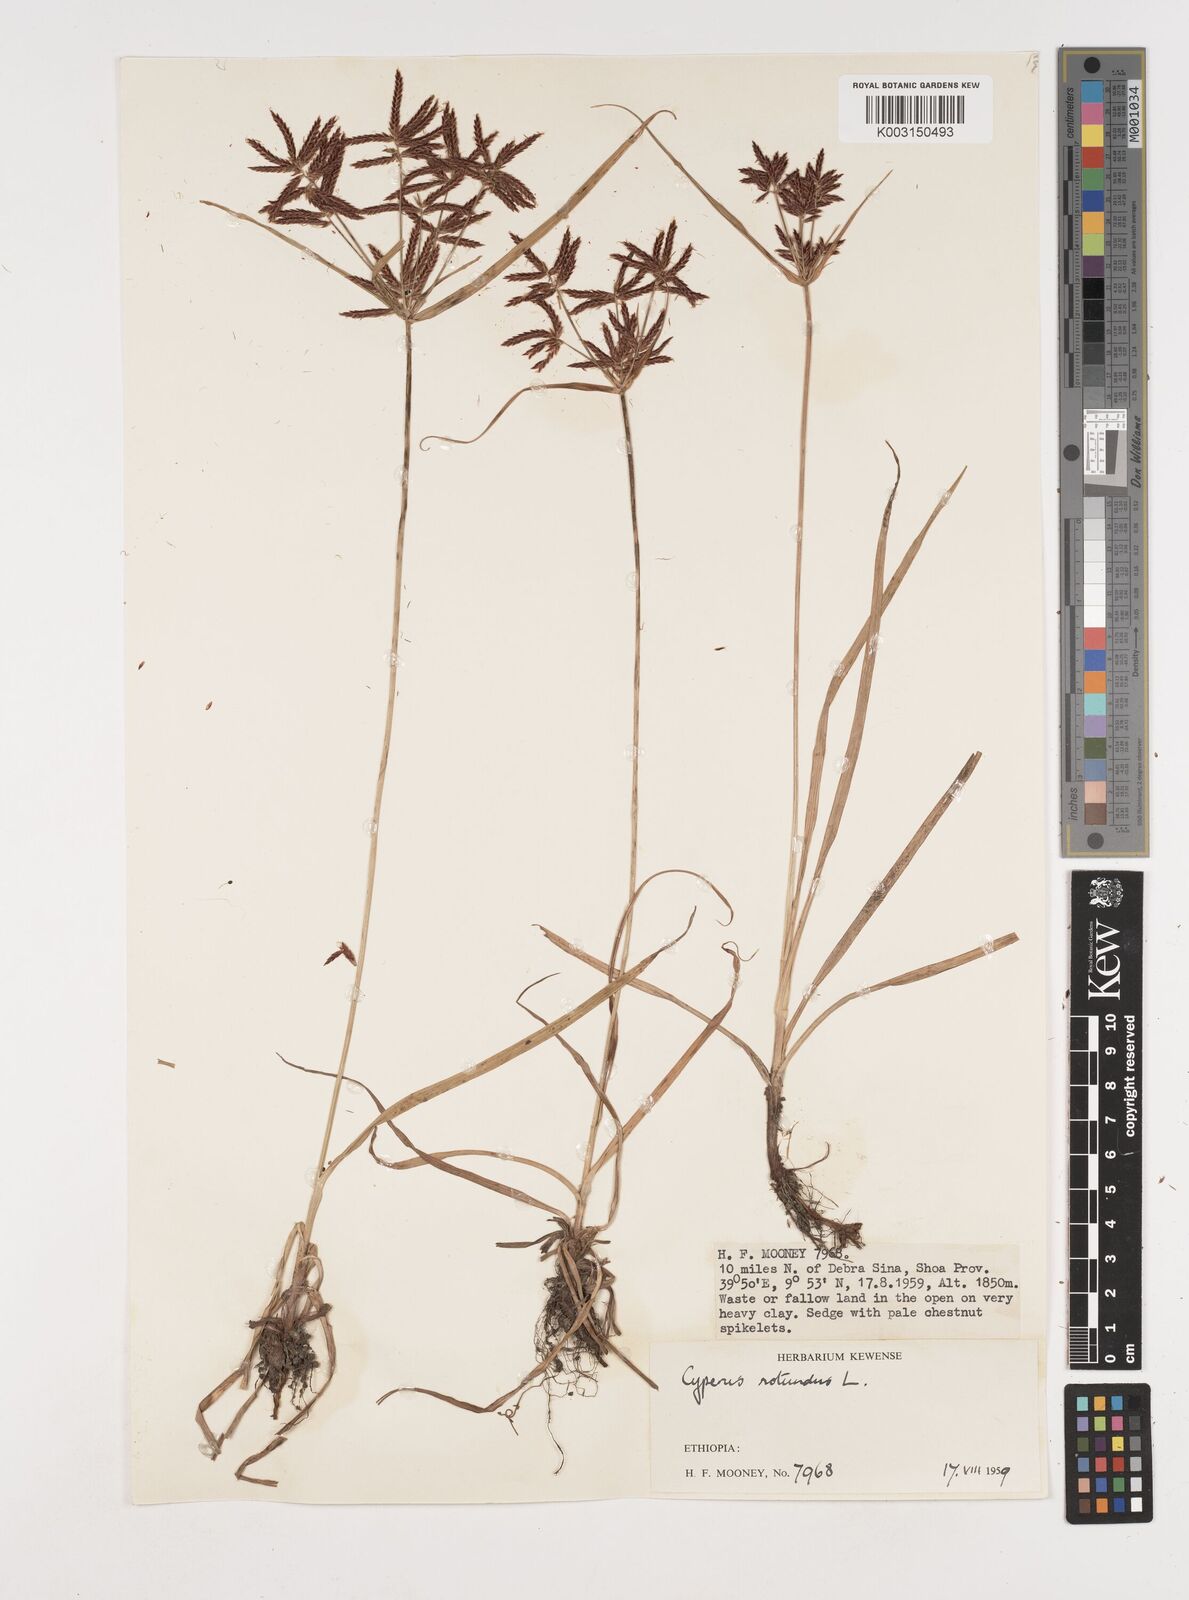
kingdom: Plantae
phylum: Tracheophyta
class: Liliopsida
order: Poales
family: Cyperaceae
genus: Cyperus
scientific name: Cyperus rotundus
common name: Nutgrass
